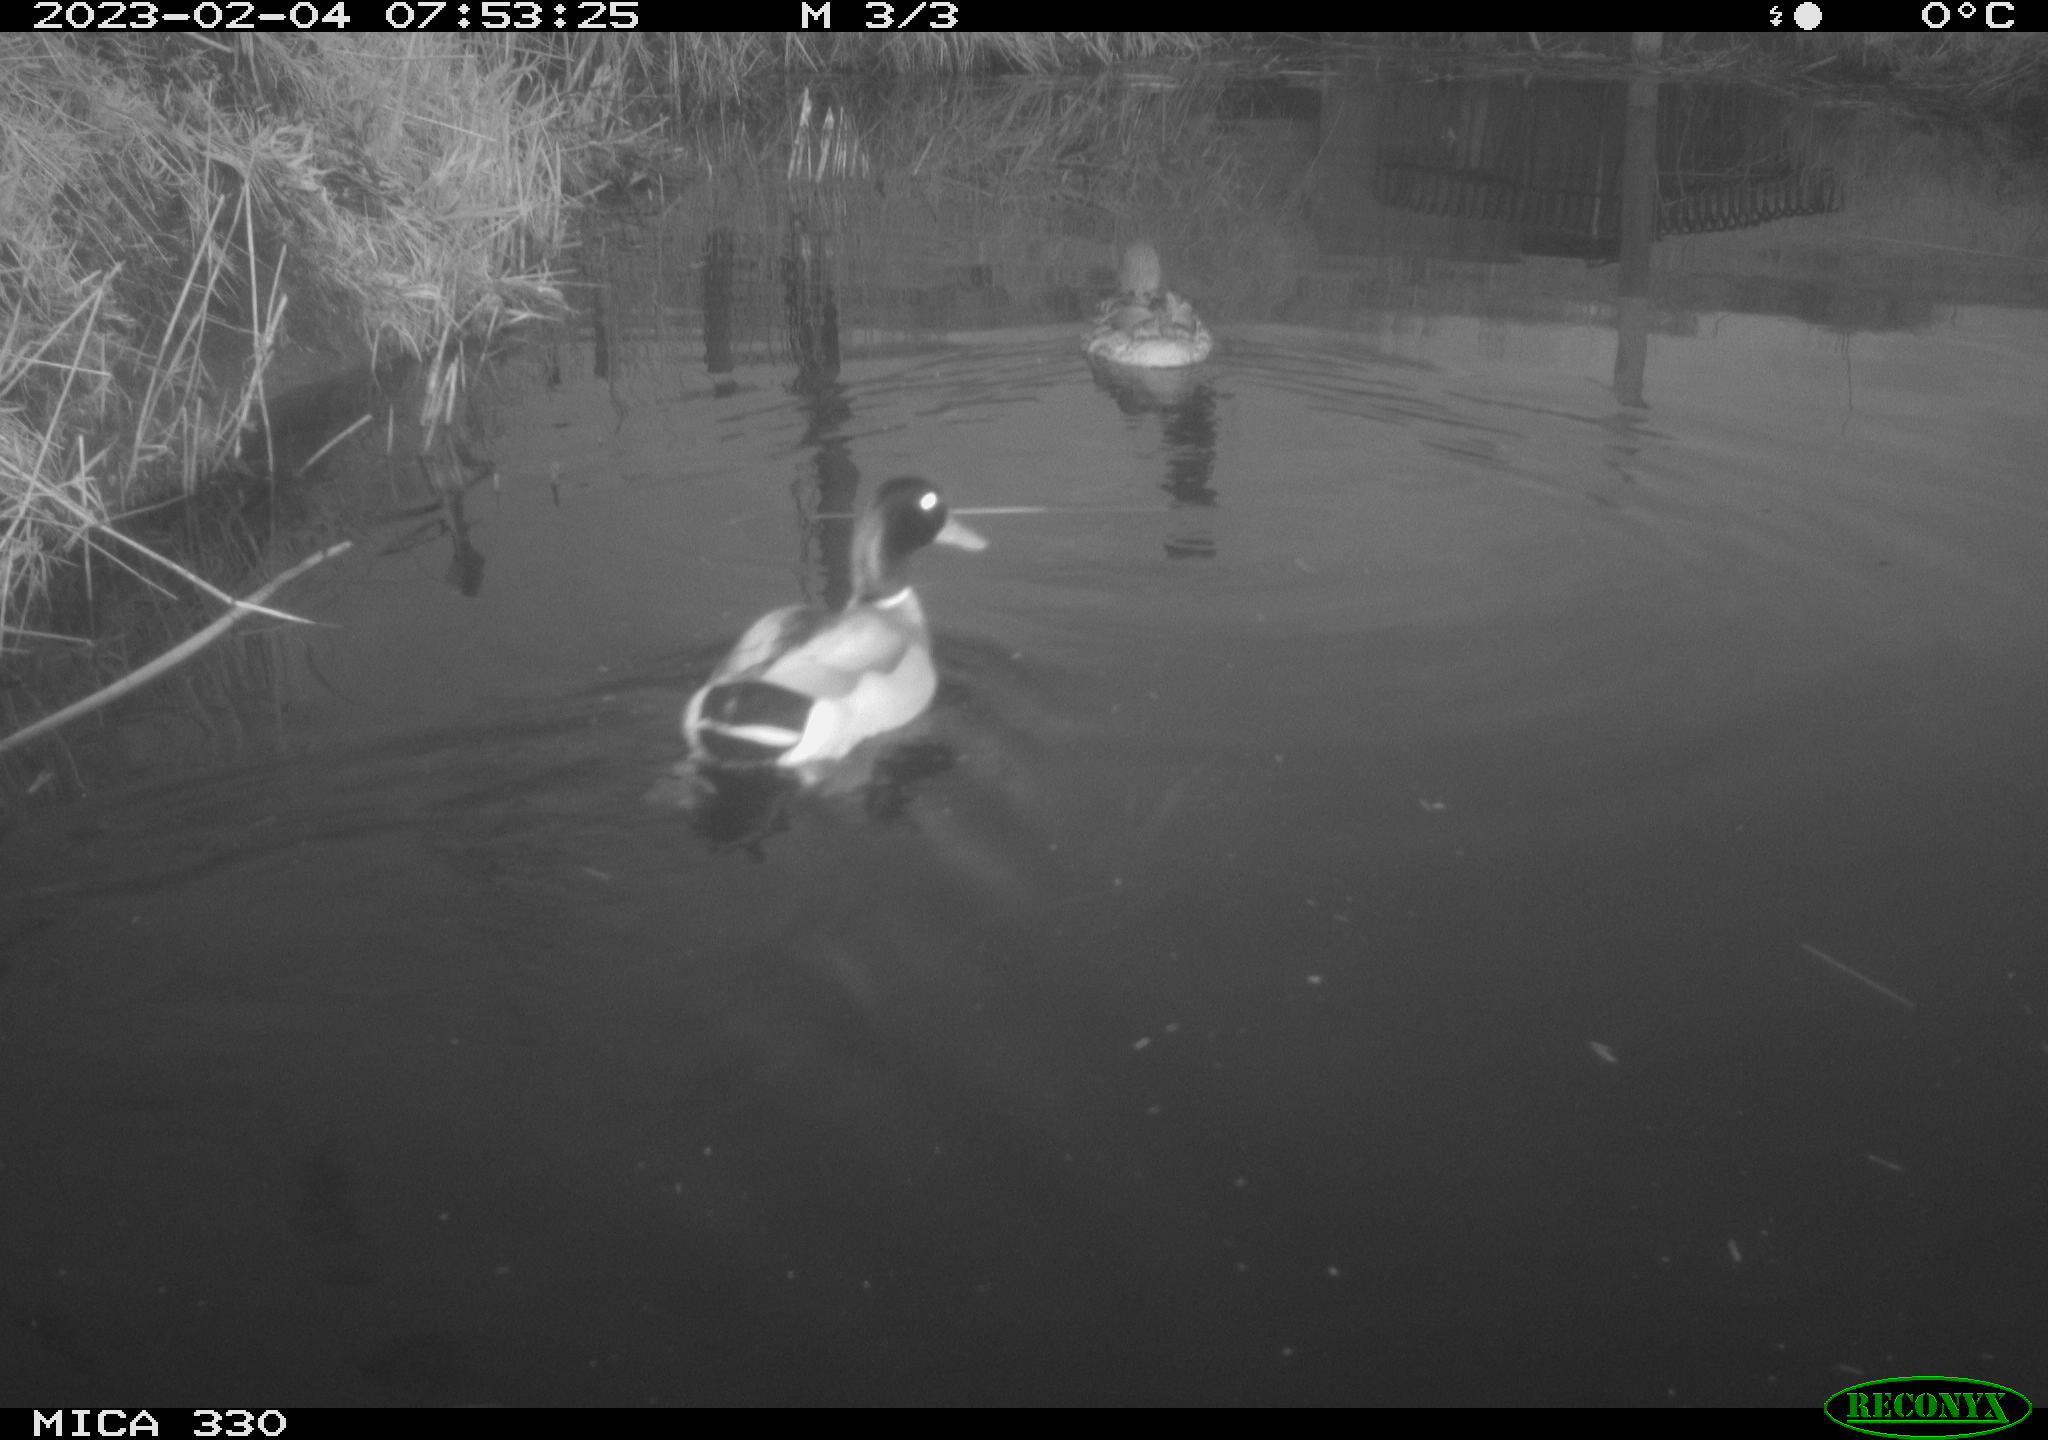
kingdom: Animalia
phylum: Chordata
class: Aves
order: Anseriformes
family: Anatidae
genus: Anas
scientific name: Anas
